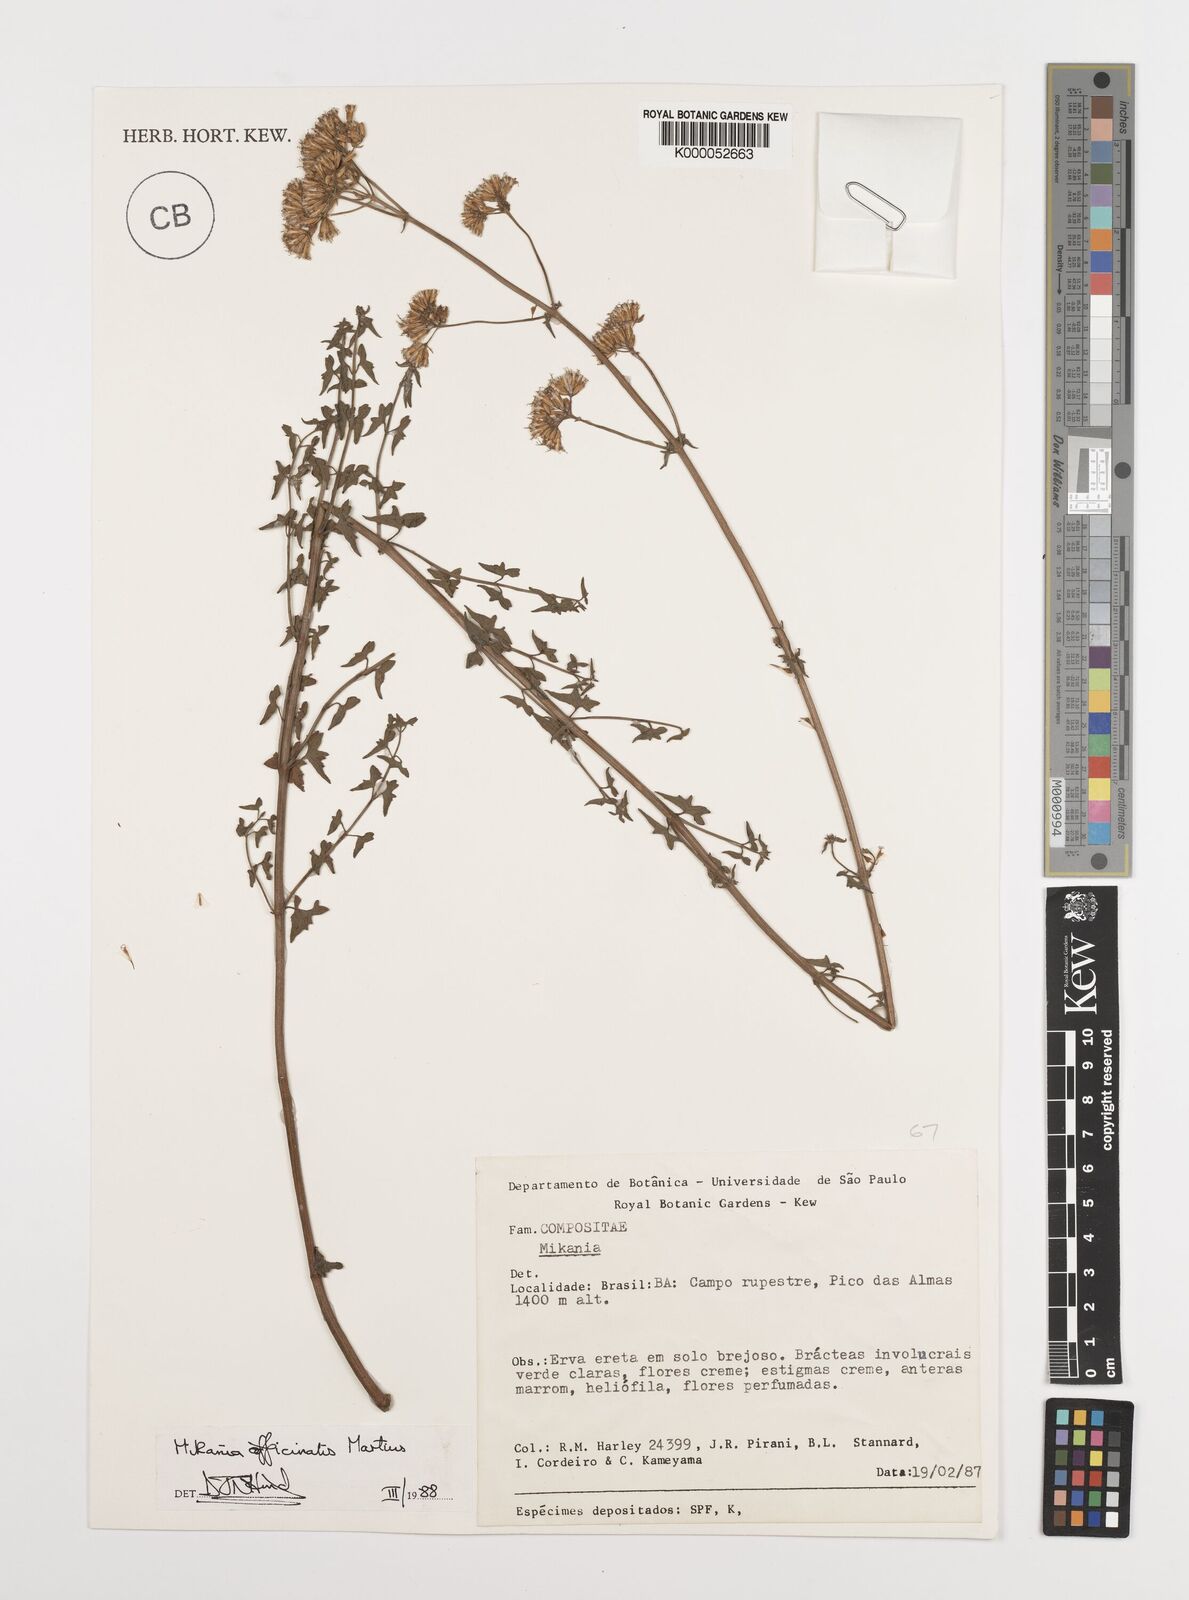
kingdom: Plantae
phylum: Tracheophyta
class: Magnoliopsida
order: Asterales
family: Asteraceae
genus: Mikania
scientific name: Mikania officinalis
